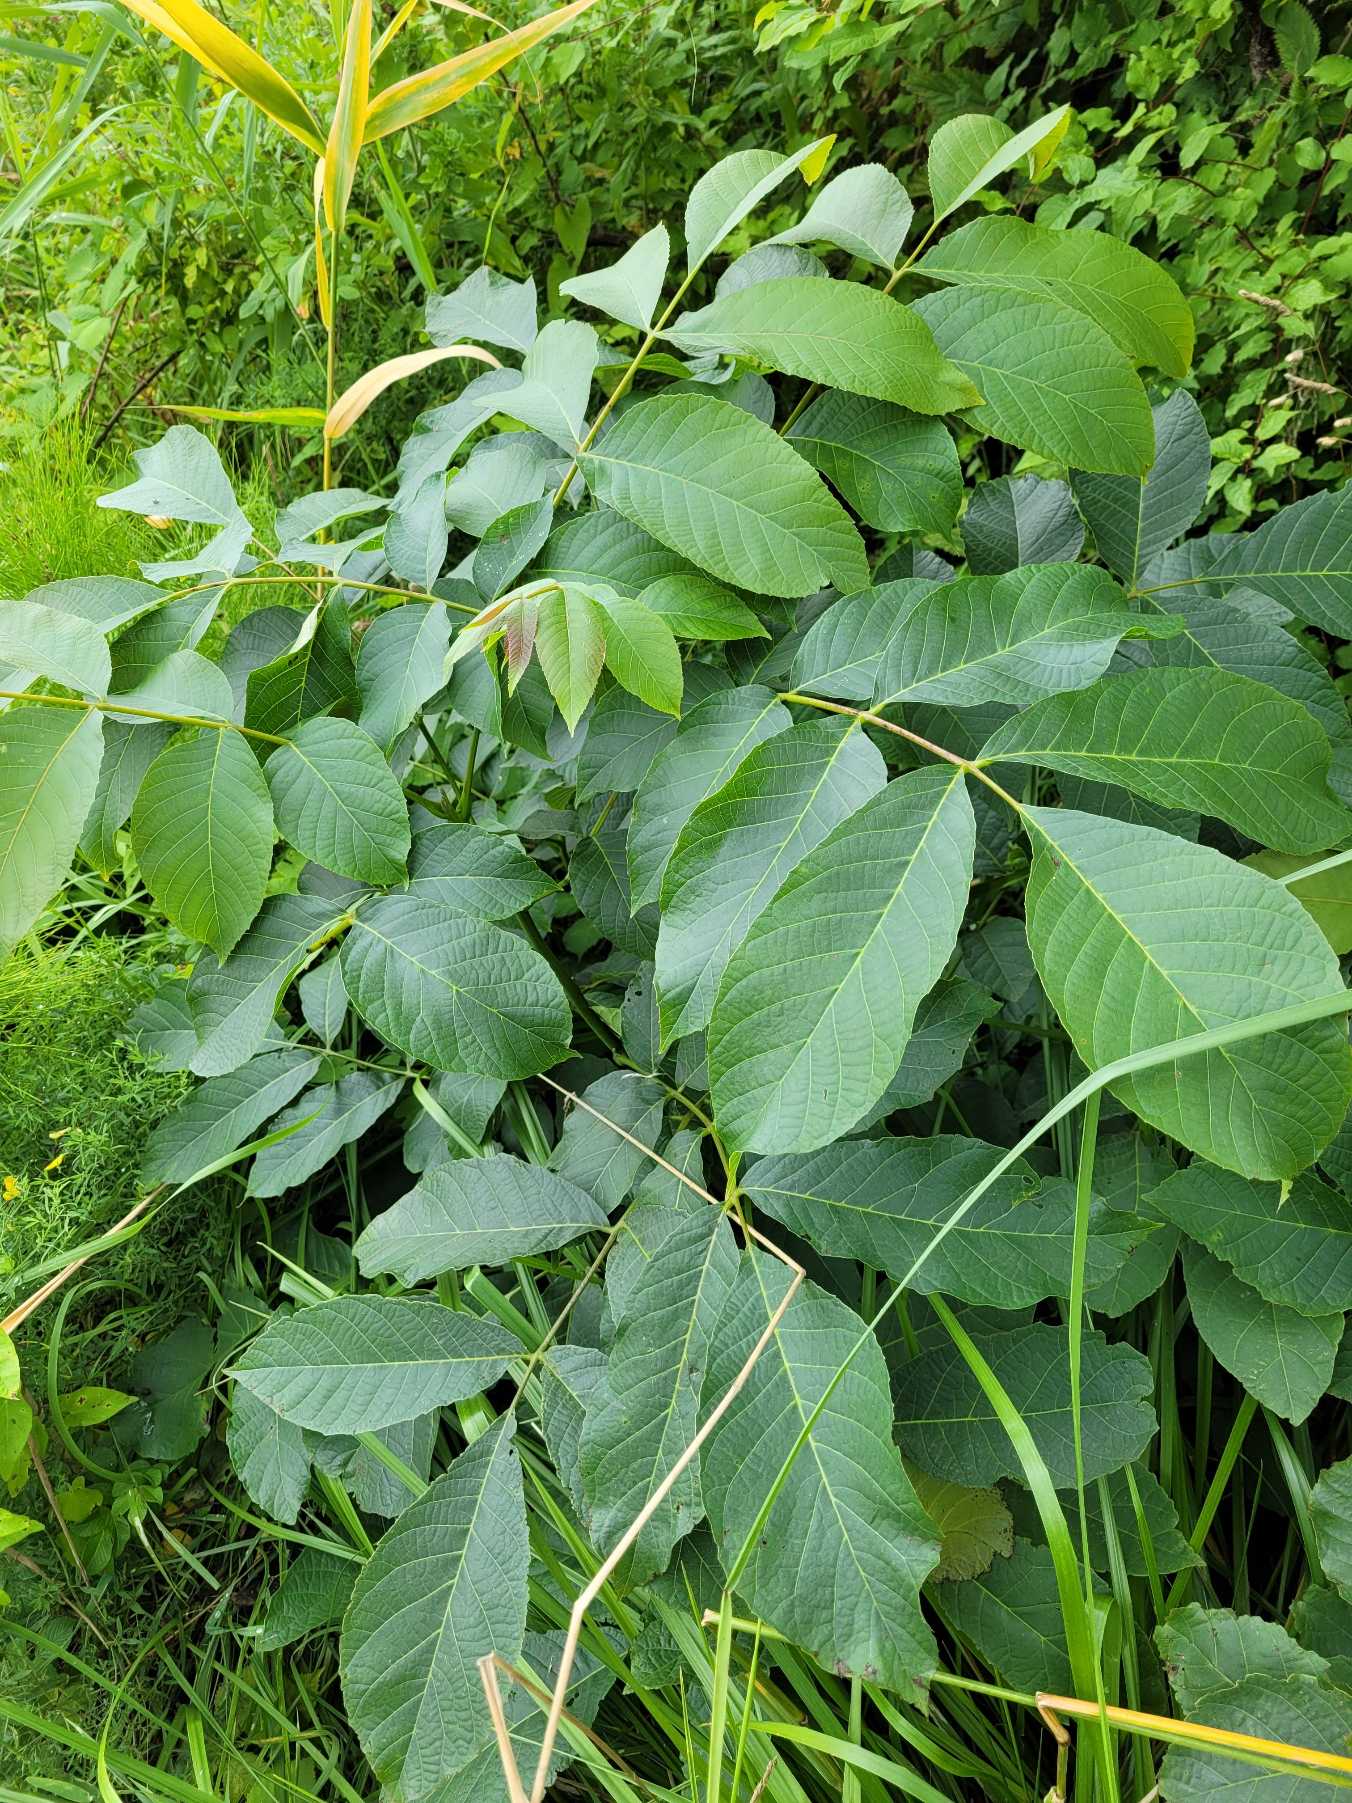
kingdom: Plantae
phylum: Tracheophyta
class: Magnoliopsida
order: Fagales
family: Juglandaceae
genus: Juglans
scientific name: Juglans regia
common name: Almindelig valnød
